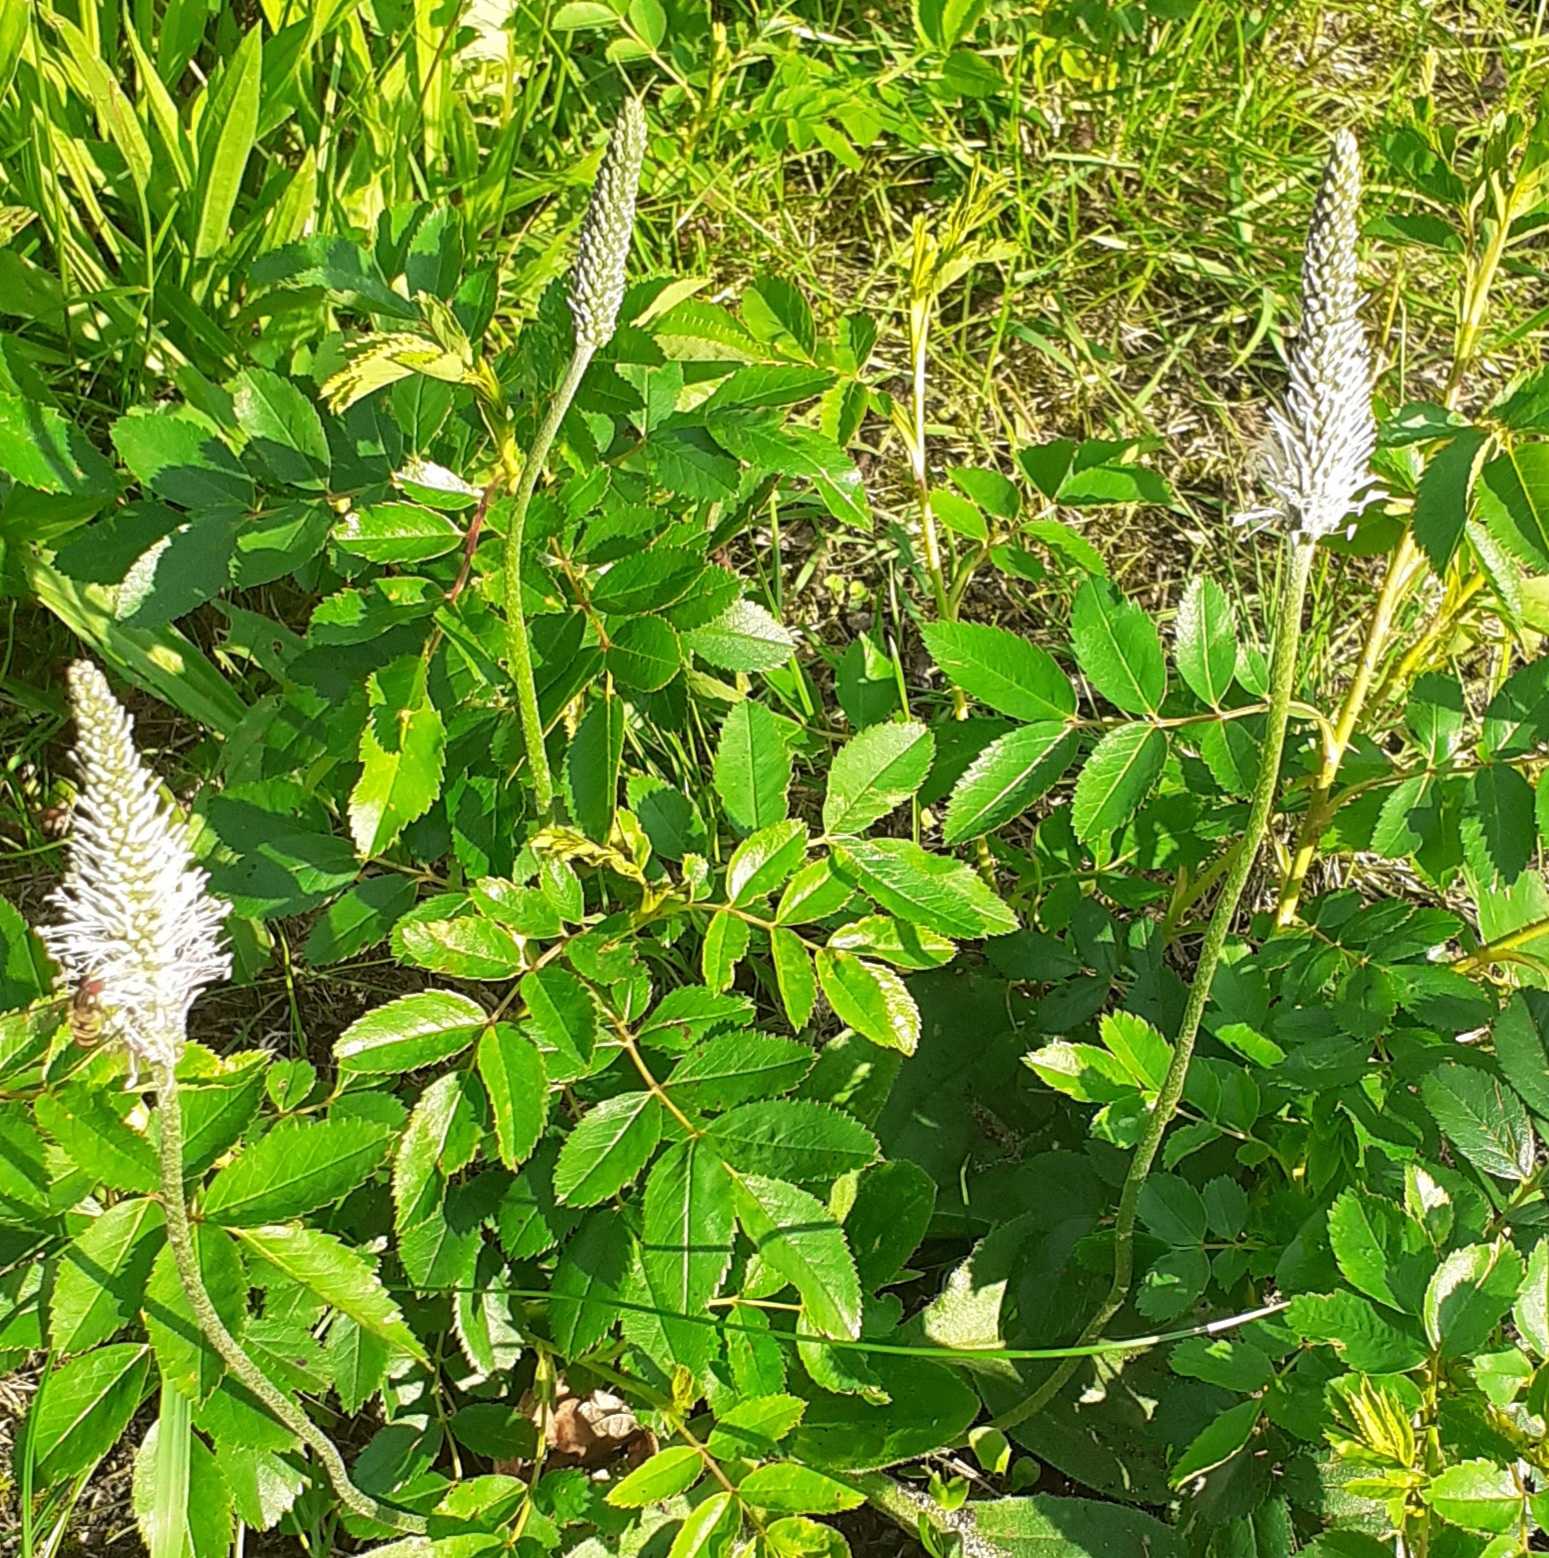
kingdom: Plantae
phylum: Tracheophyta
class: Magnoliopsida
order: Lamiales
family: Plantaginaceae
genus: Plantago
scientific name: Plantago media
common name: Dunet vejbred
